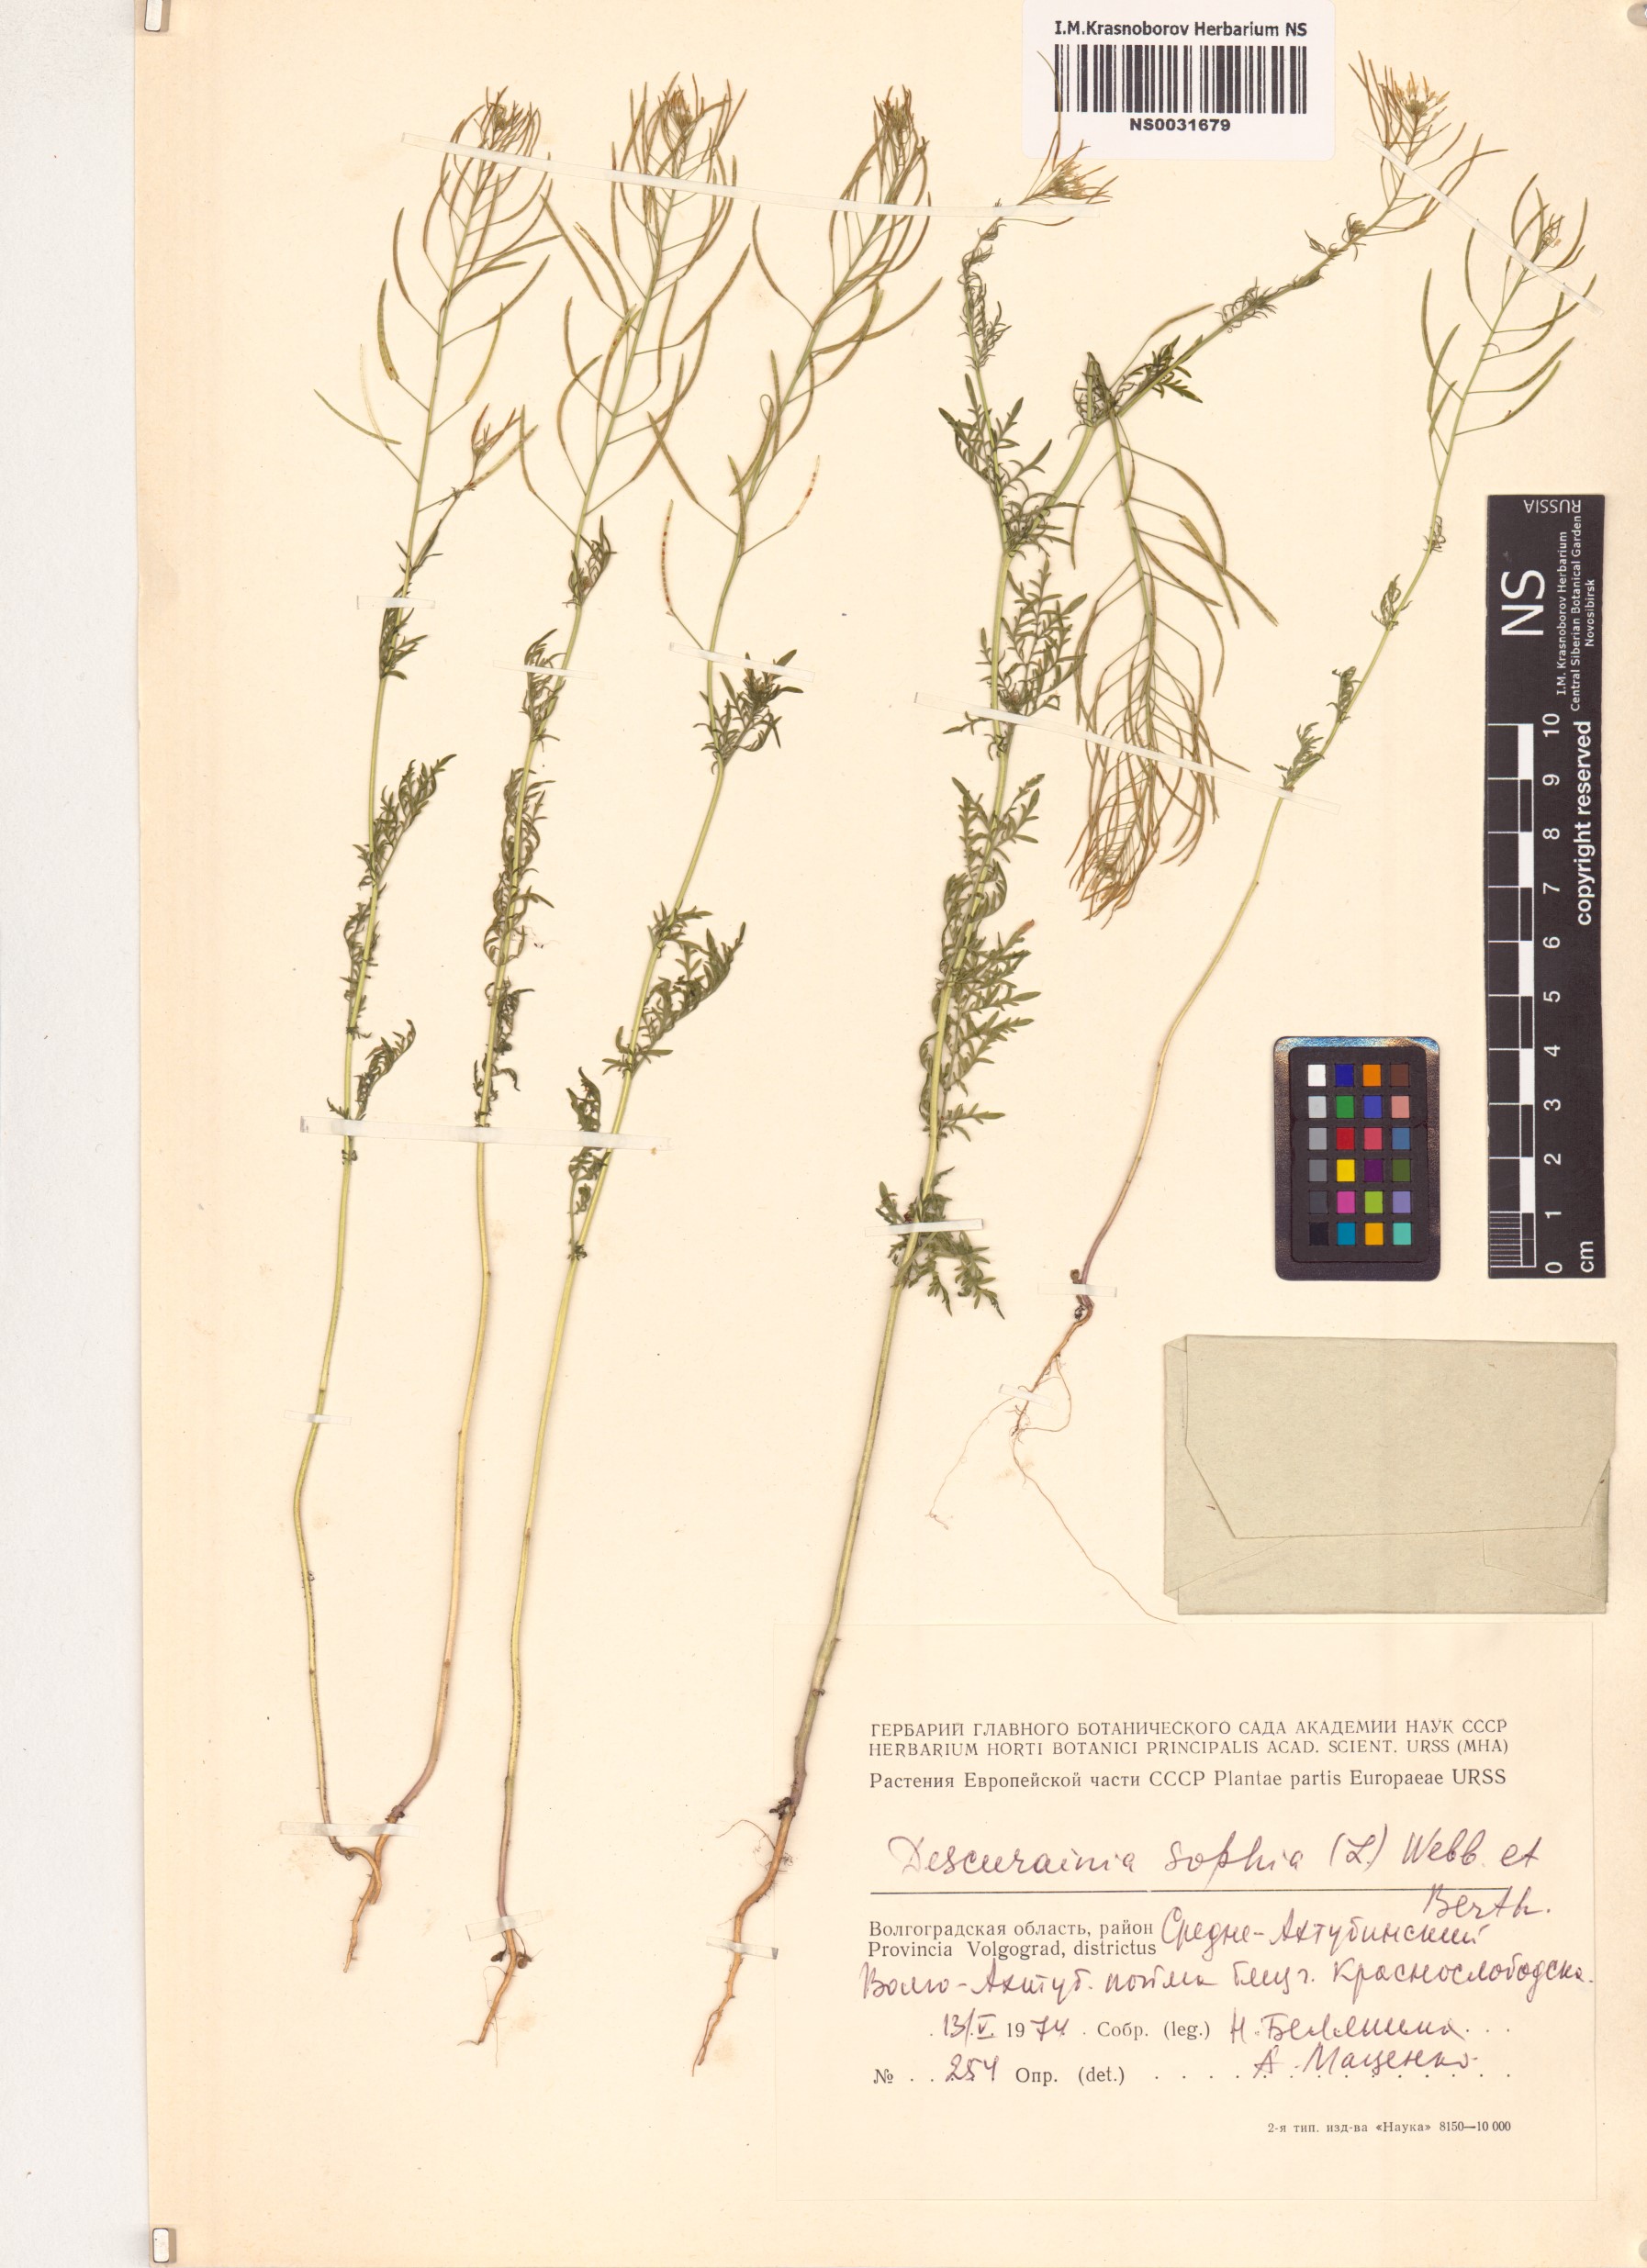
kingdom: Plantae
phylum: Tracheophyta
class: Magnoliopsida
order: Brassicales
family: Brassicaceae
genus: Descurainia
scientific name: Descurainia sophia
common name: Flixweed
